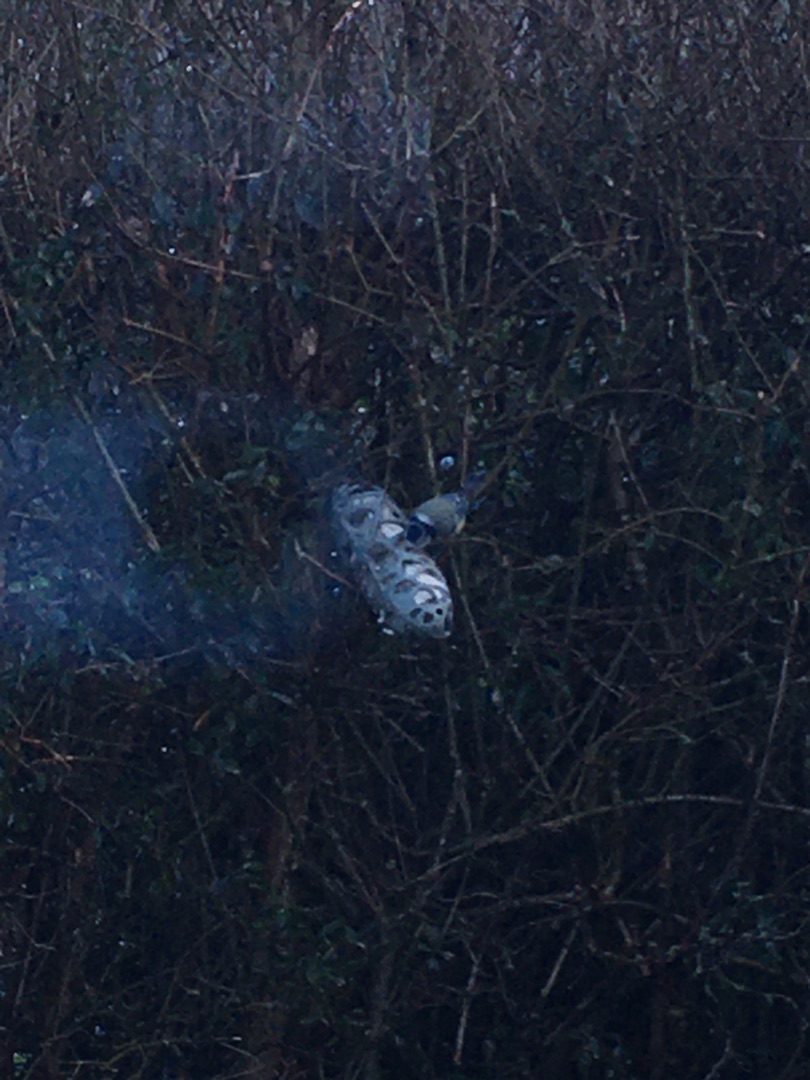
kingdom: Animalia
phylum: Chordata
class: Aves
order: Passeriformes
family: Paridae
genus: Cyanistes
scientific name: Cyanistes caeruleus
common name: Blåmejse
